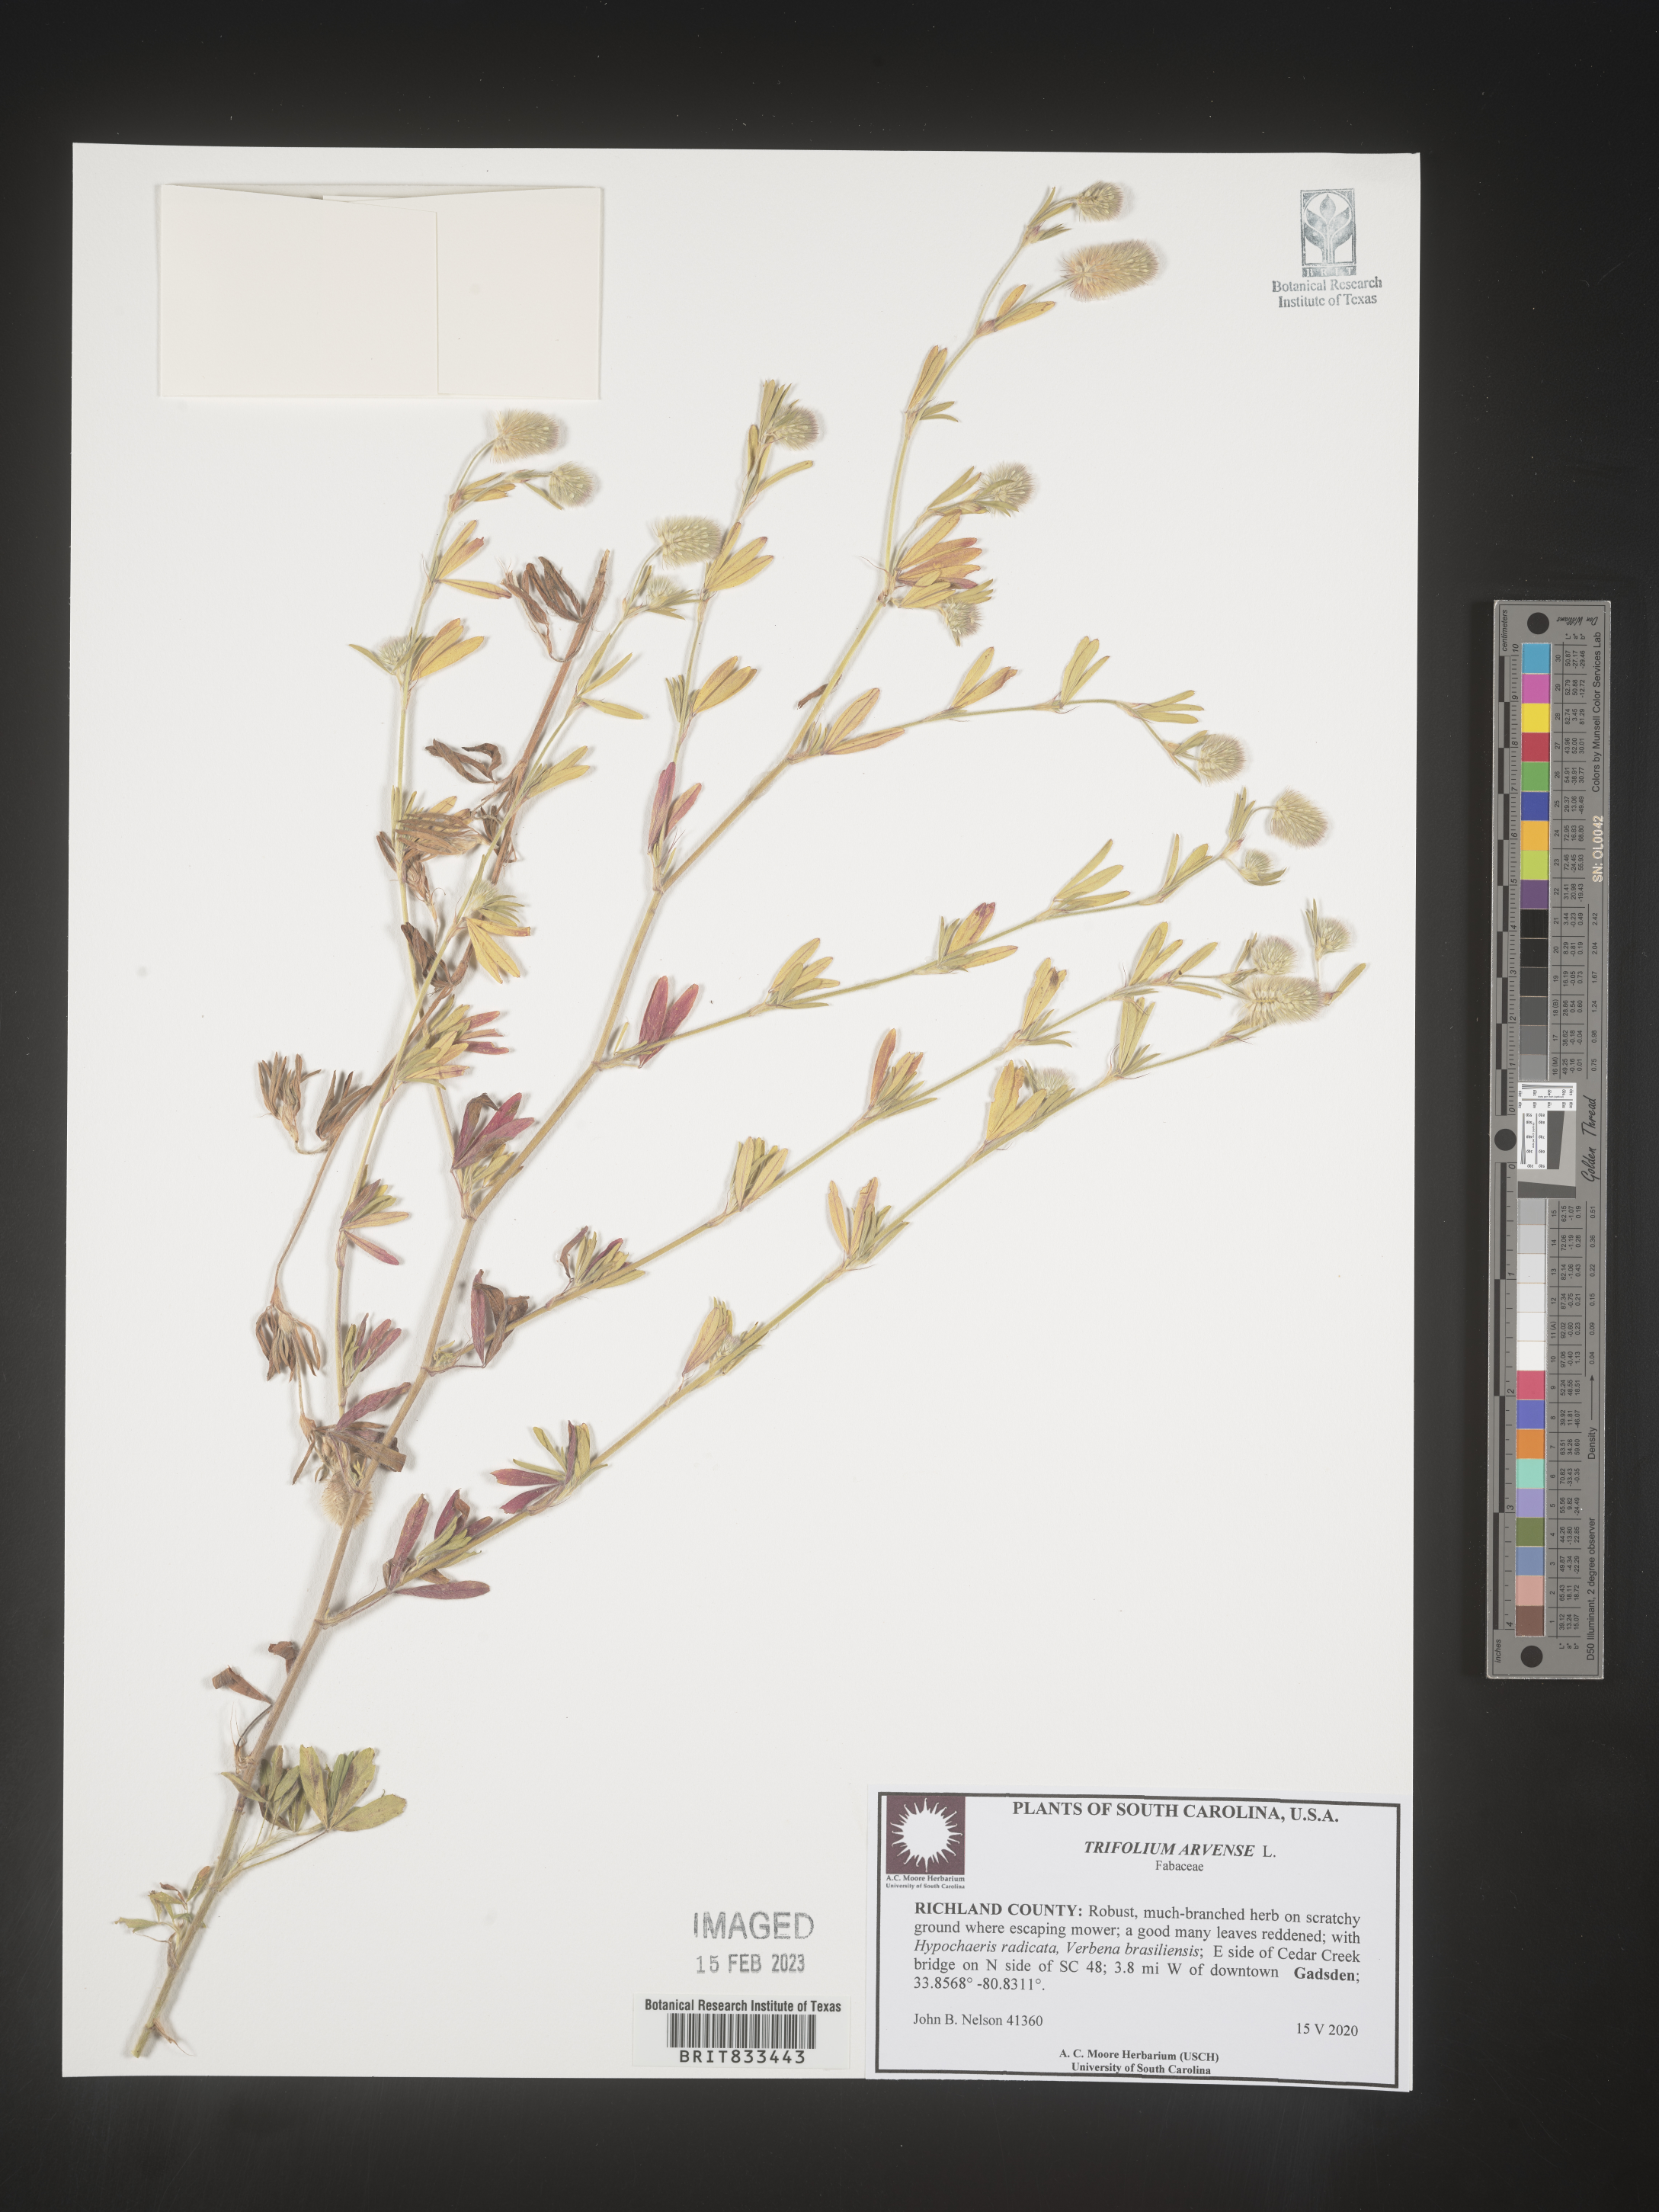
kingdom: Plantae
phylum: Tracheophyta
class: Magnoliopsida
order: Fabales
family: Fabaceae
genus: Trifolium
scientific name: Trifolium arvense
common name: Hare's-foot clover
